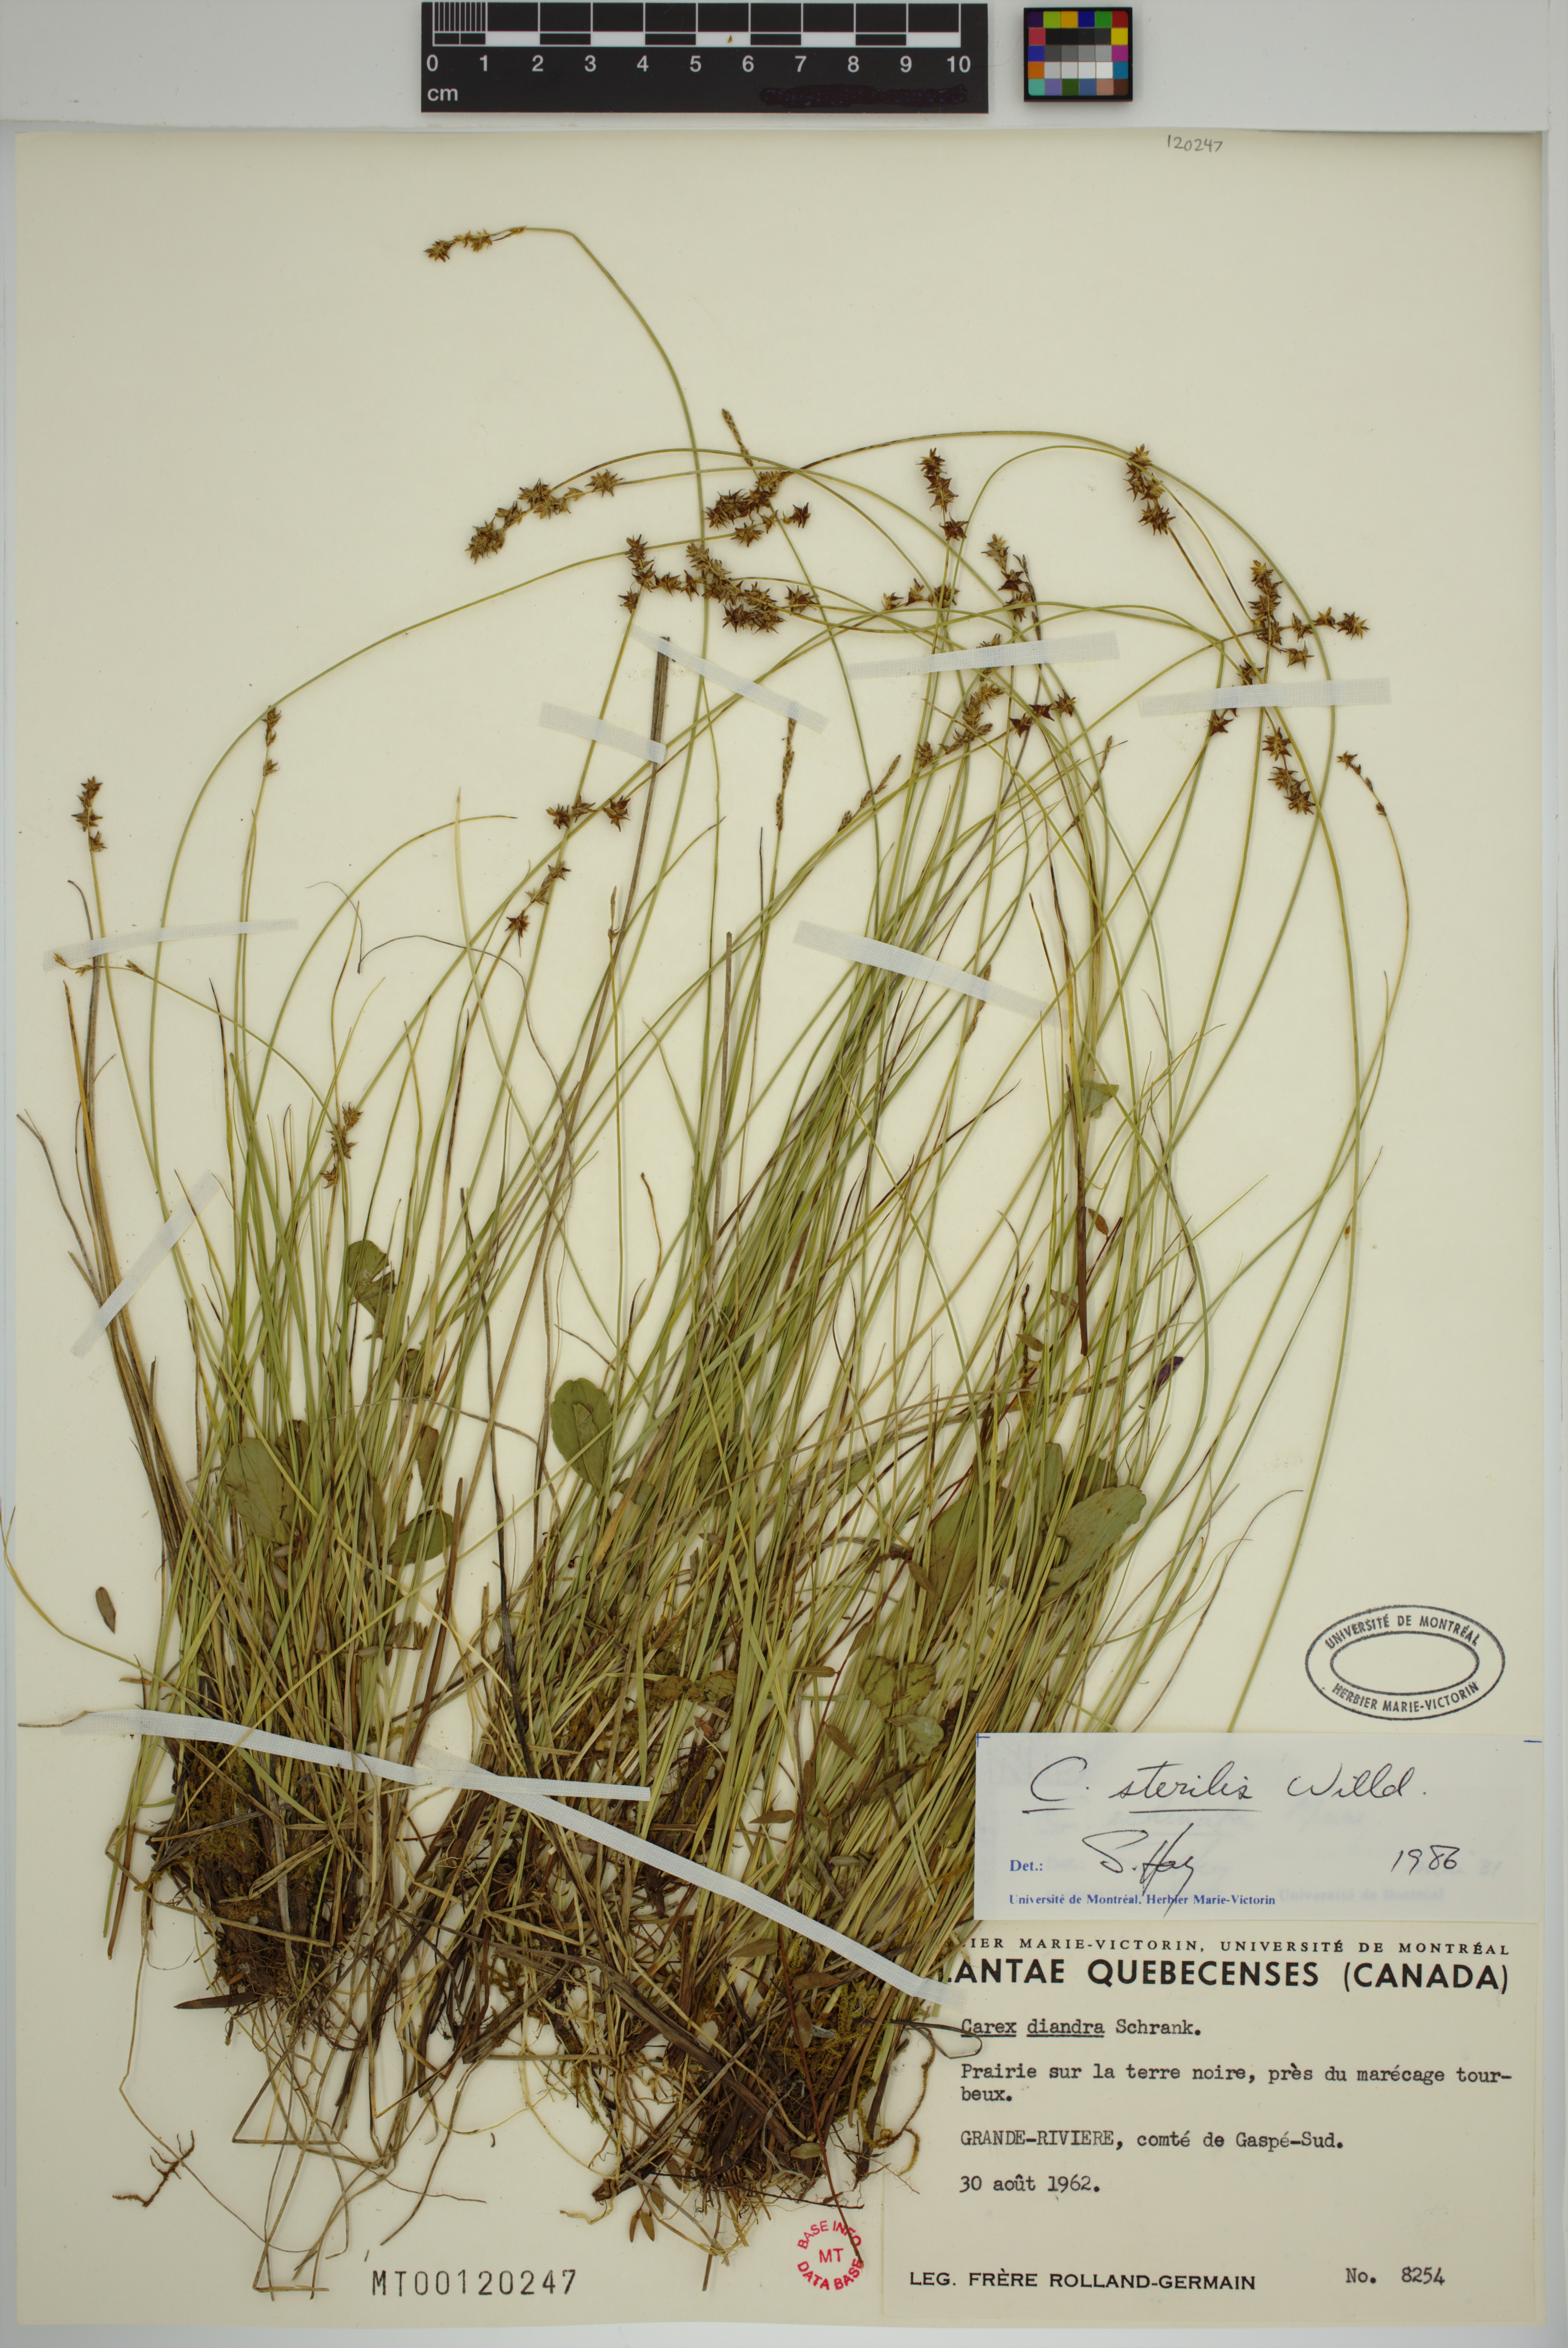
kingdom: Plantae
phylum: Tracheophyta
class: Liliopsida
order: Poales
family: Cyperaceae
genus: Carex
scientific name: Carex sterilis
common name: Dioecious sedge
